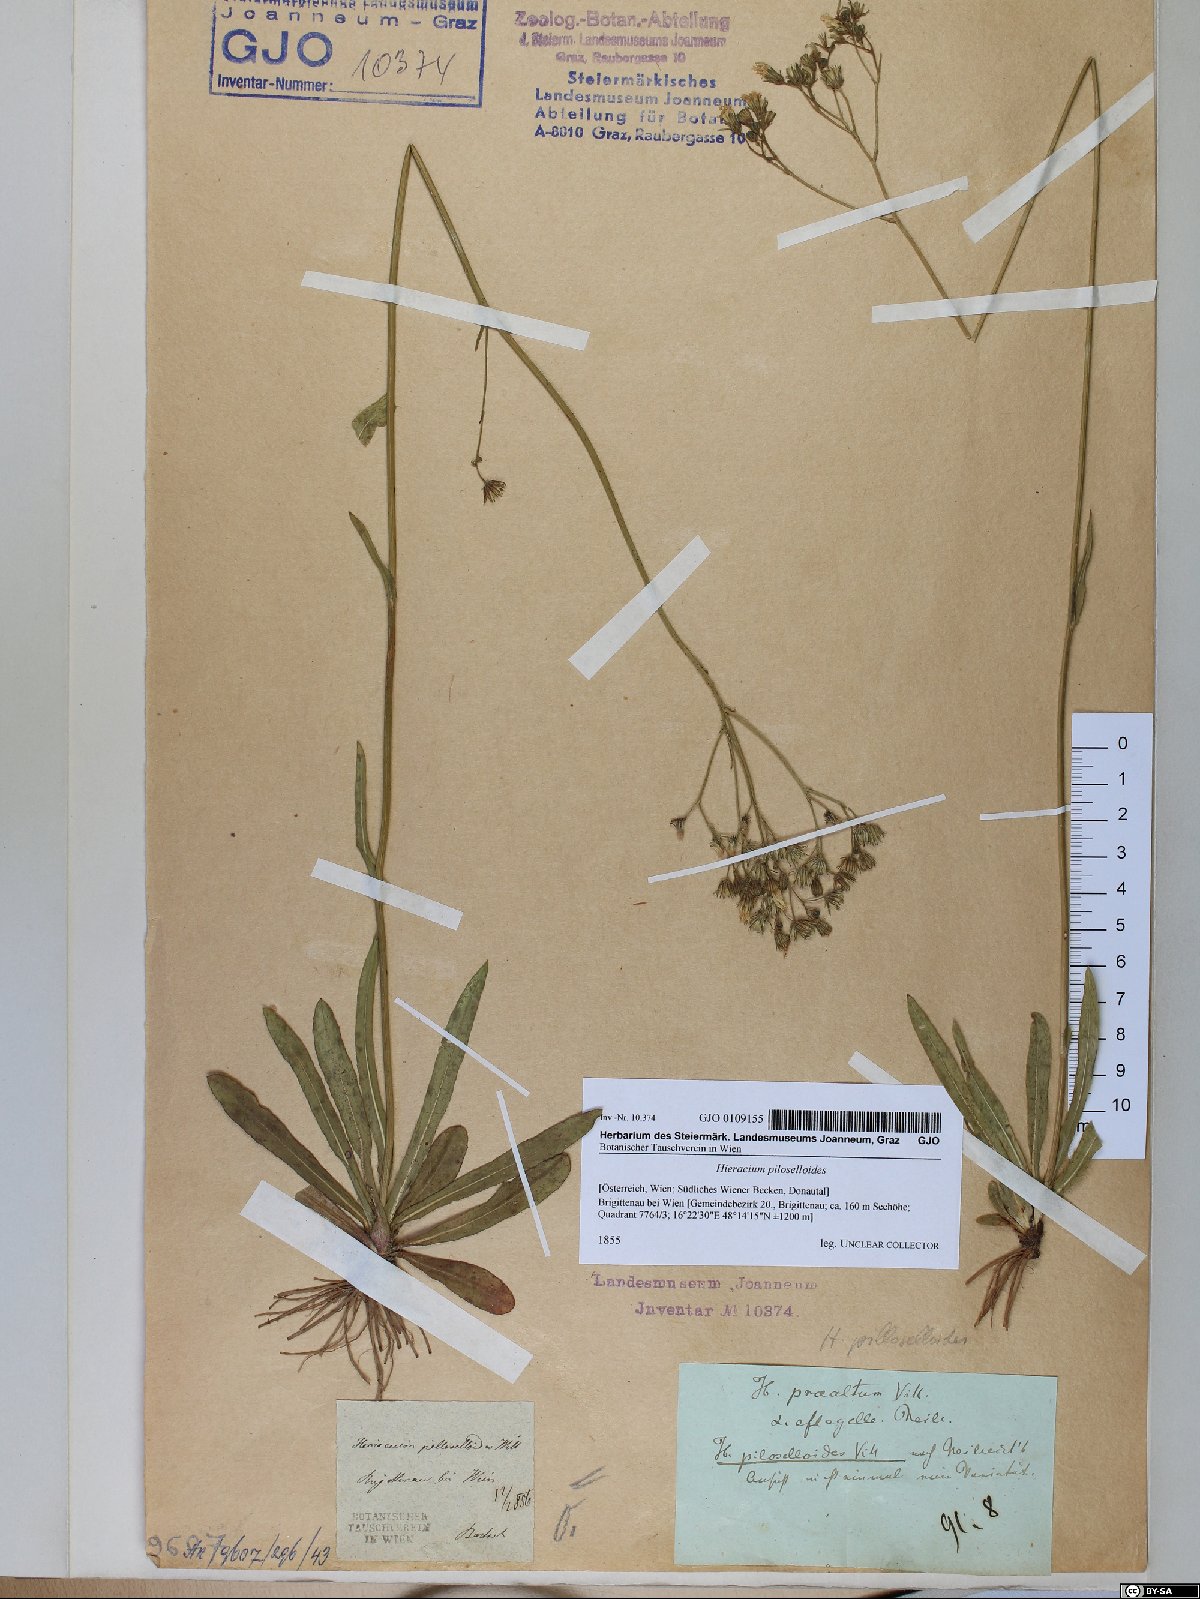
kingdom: Plantae
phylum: Tracheophyta
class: Magnoliopsida
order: Asterales
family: Asteraceae
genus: Pilosella
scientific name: Pilosella piloselloides
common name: Glaucous king-devil
